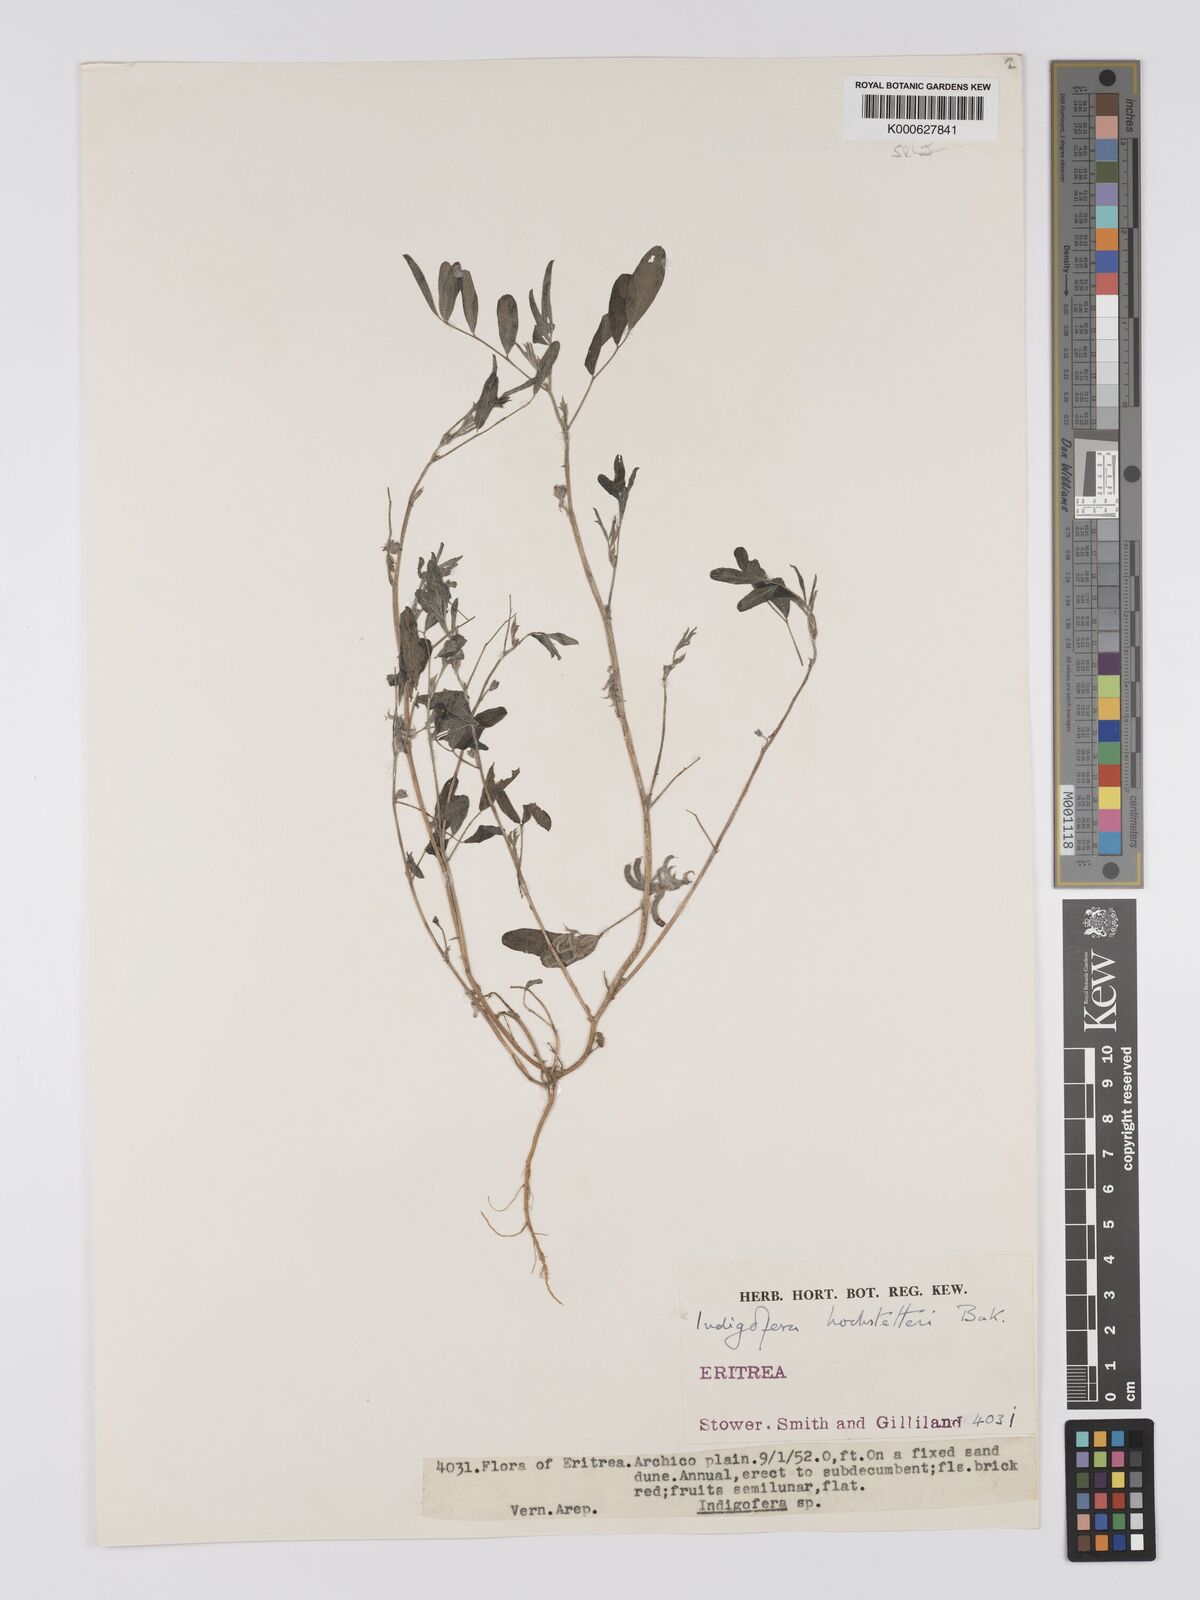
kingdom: Plantae
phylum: Tracheophyta
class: Magnoliopsida
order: Fabales
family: Fabaceae
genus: Indigofera
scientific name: Indigofera hochstetteri
